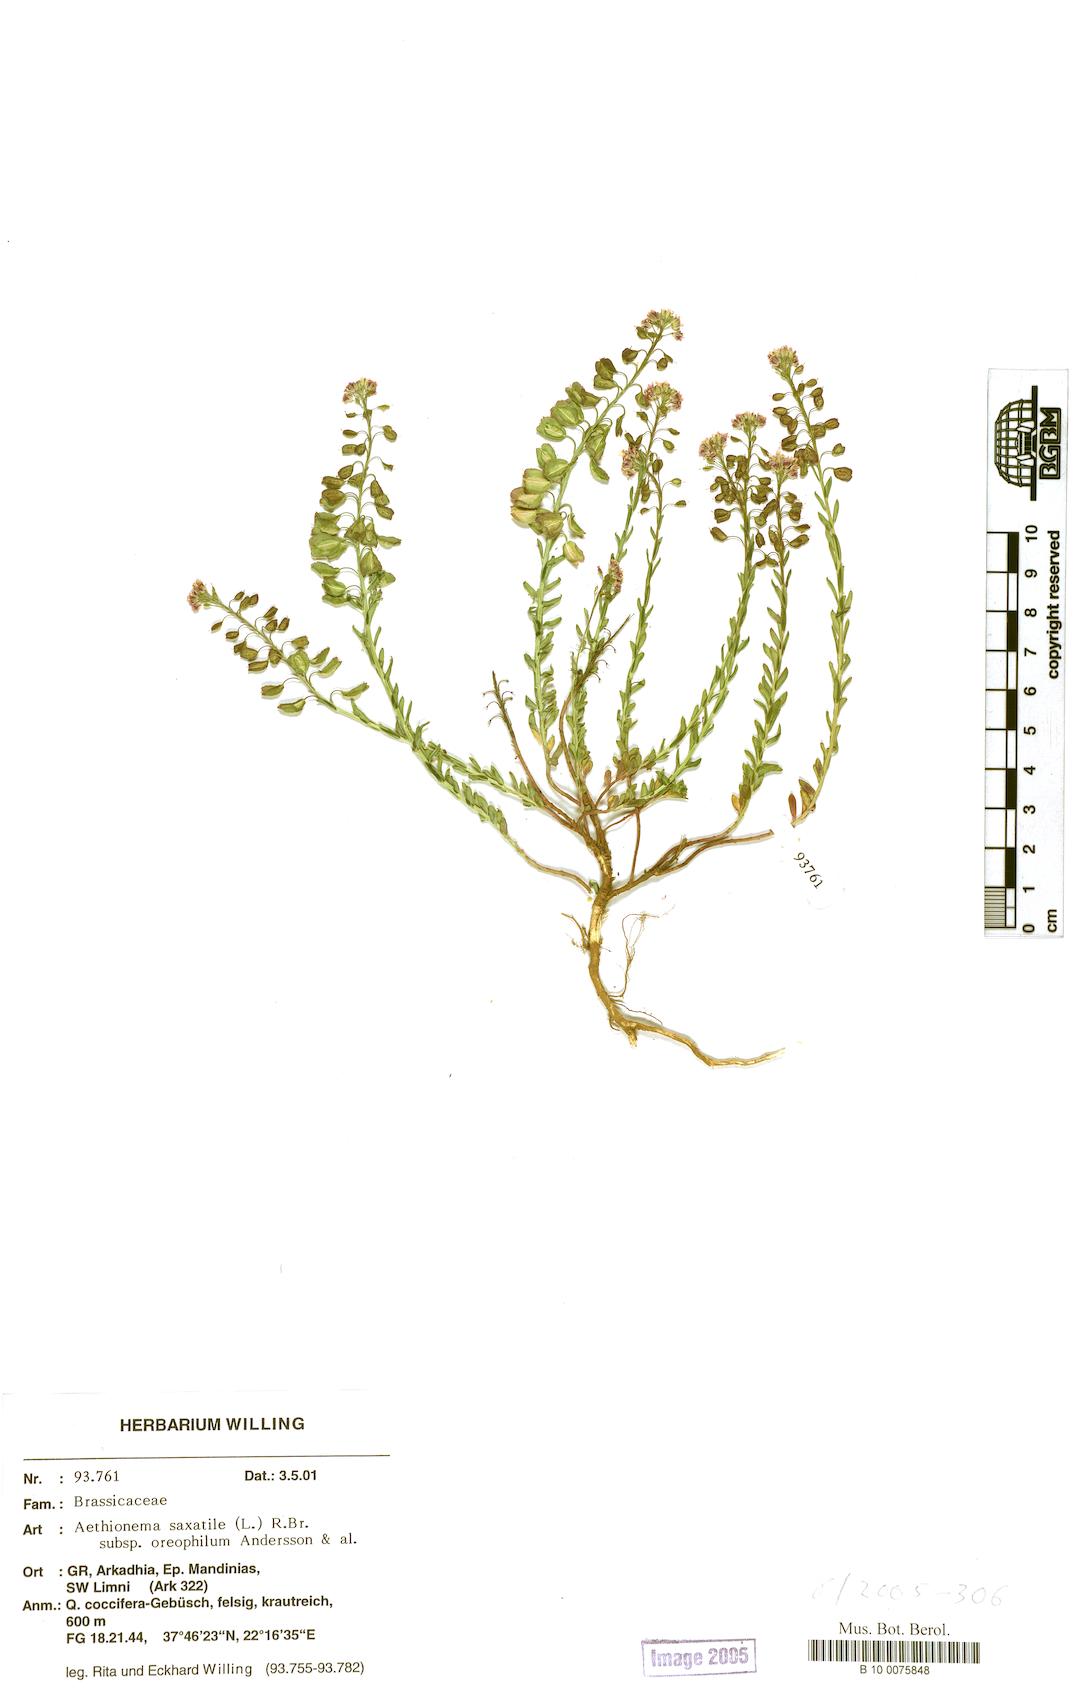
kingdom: Plantae
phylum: Tracheophyta
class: Magnoliopsida
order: Brassicales
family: Brassicaceae
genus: Aethionema
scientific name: Aethionema saxatile
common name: Burnt candytuft
